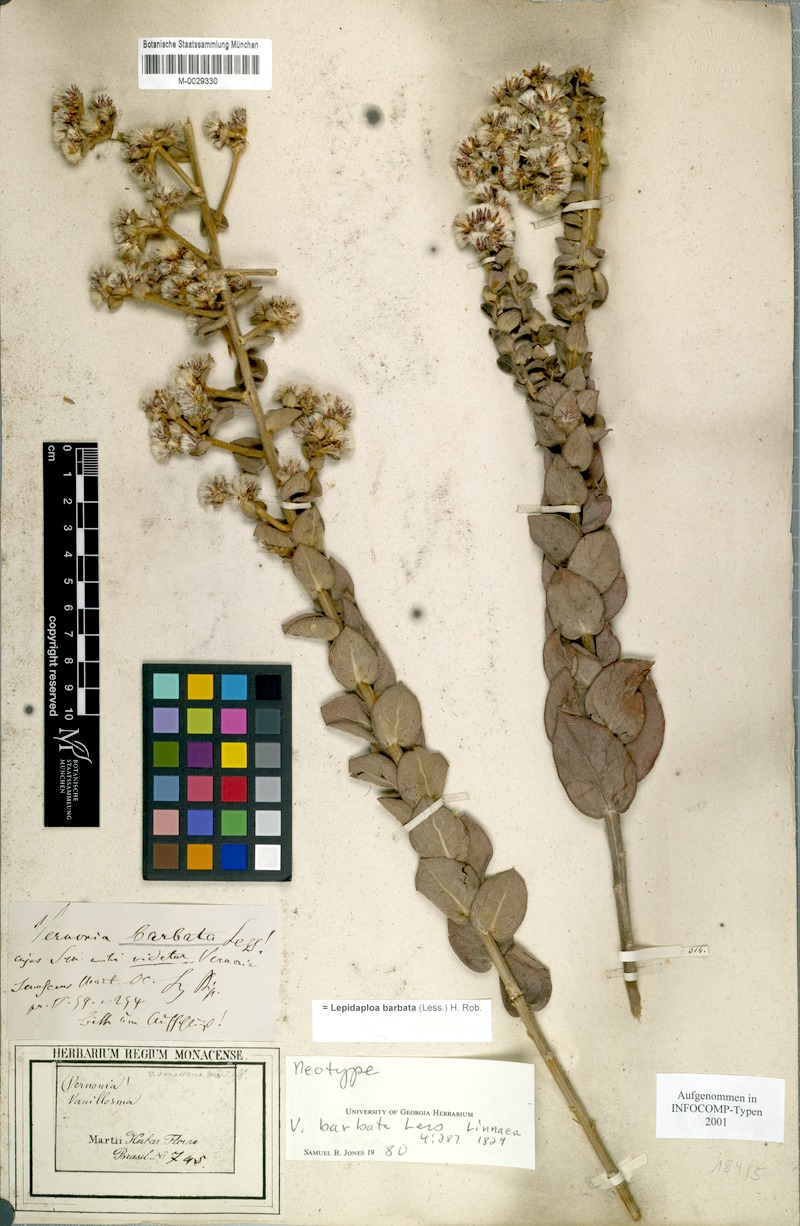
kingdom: Plantae
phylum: Tracheophyta
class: Magnoliopsida
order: Asterales
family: Asteraceae
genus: Lepidaploa
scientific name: Lepidaploa barbata
